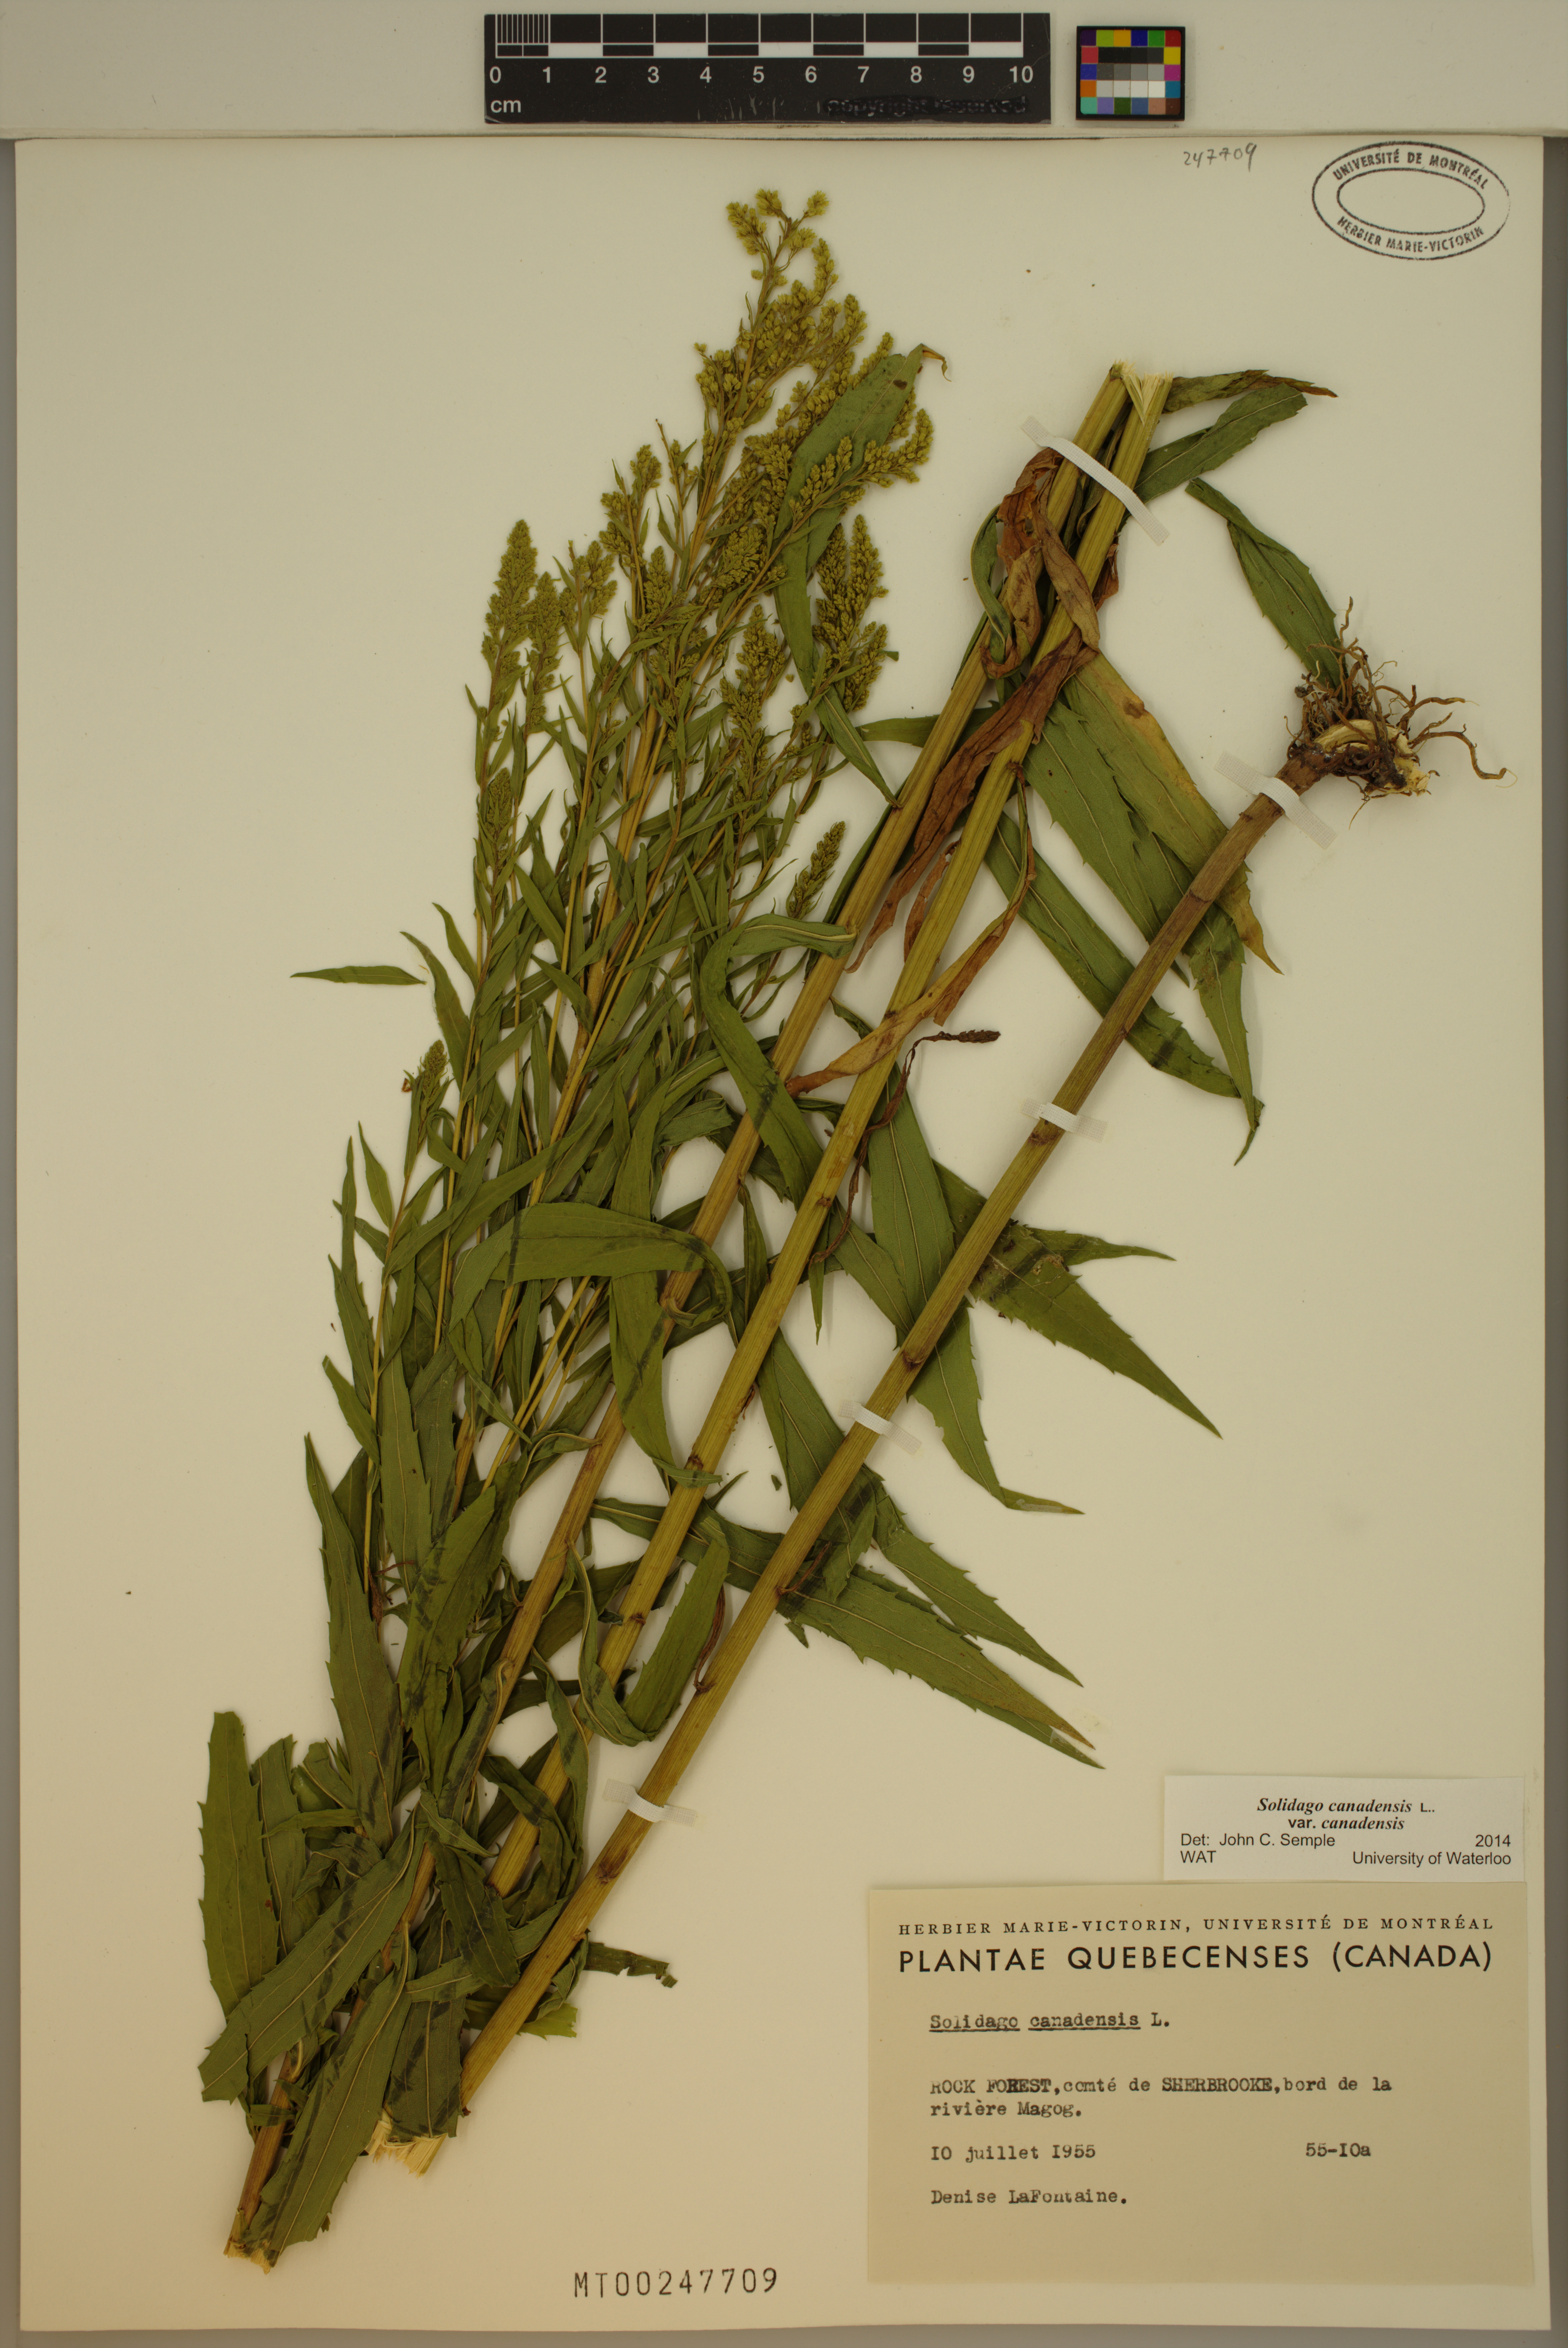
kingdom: Plantae
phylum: Tracheophyta
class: Magnoliopsida
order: Asterales
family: Asteraceae
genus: Solidago
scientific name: Solidago canadensis
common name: Canada goldenrod
